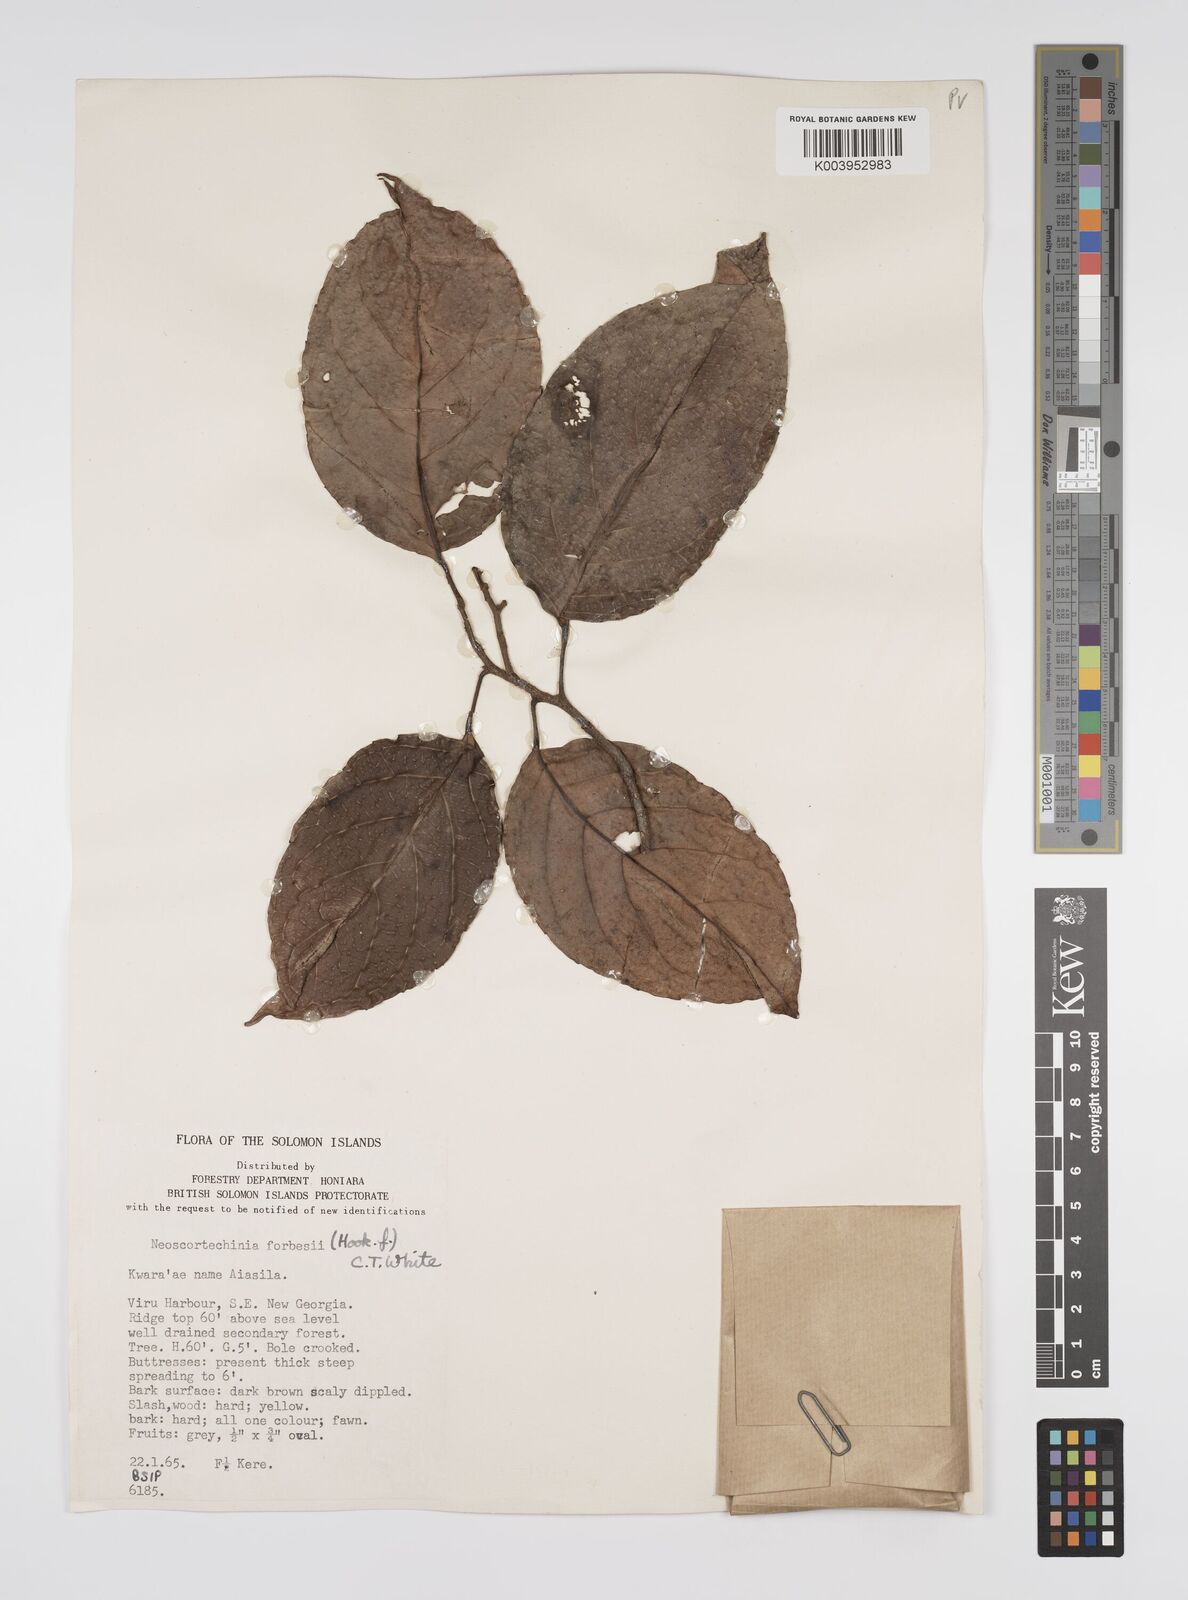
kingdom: Plantae
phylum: Tracheophyta
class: Magnoliopsida
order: Malpighiales
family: Euphorbiaceae
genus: Neoscortechinia
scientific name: Neoscortechinia forbesii
